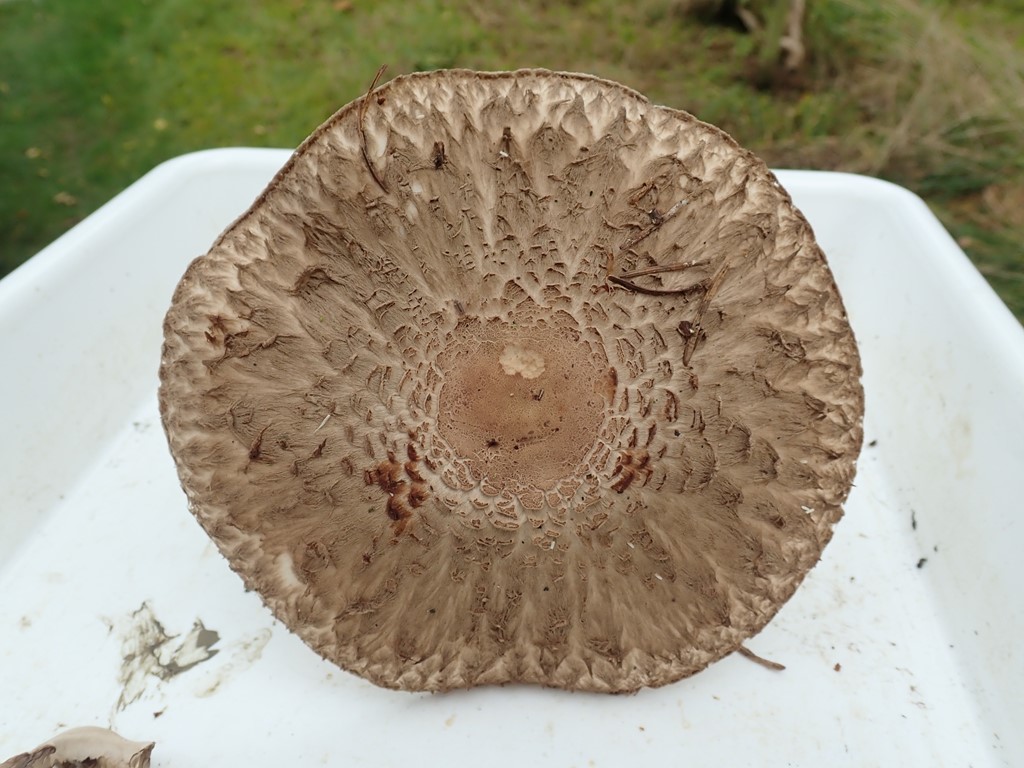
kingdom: Fungi
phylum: Basidiomycota
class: Agaricomycetes
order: Agaricales
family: Agaricaceae
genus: Chlorophyllum
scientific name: Chlorophyllum
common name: rabarberhat
